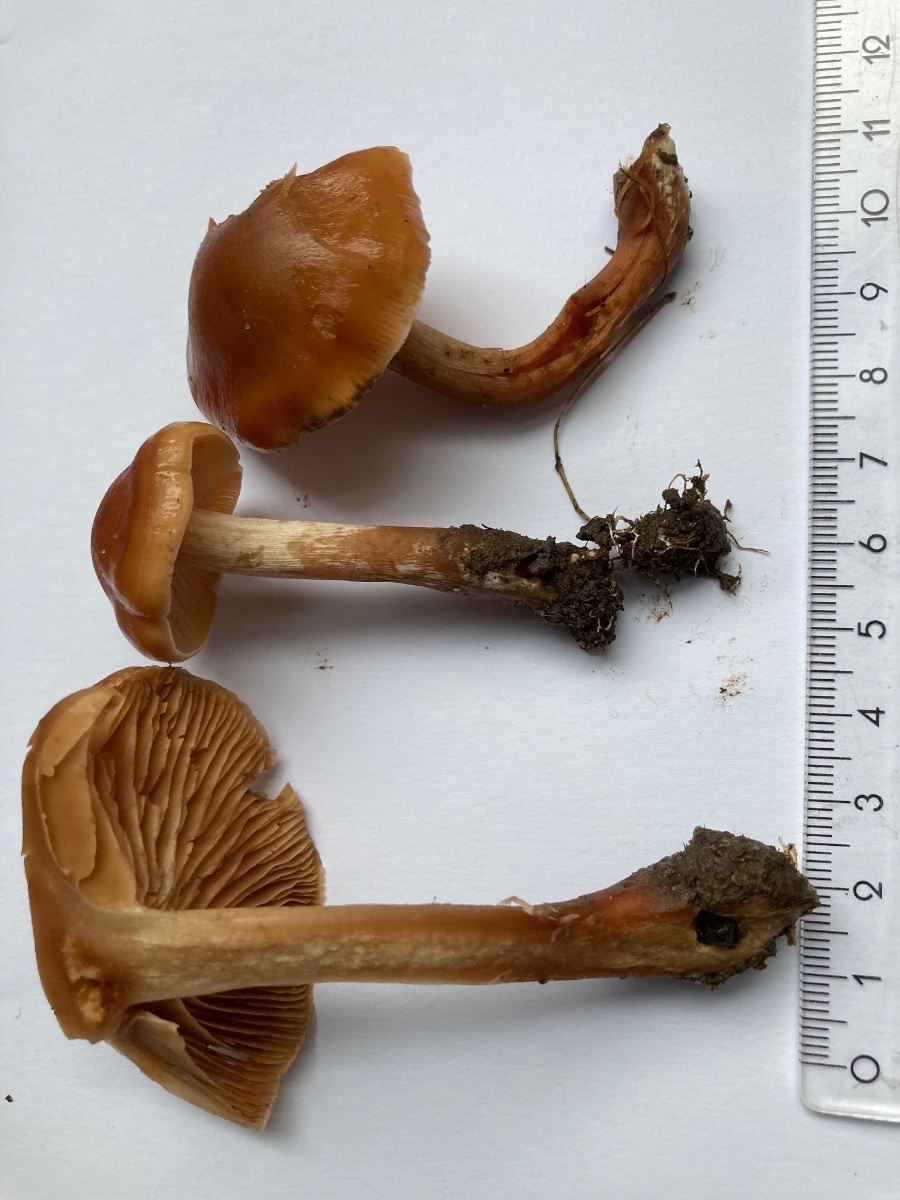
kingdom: Fungi
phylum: Basidiomycota
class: Agaricomycetes
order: Agaricales
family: Cortinariaceae
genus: Cortinarius
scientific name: Cortinarius glabrellus
